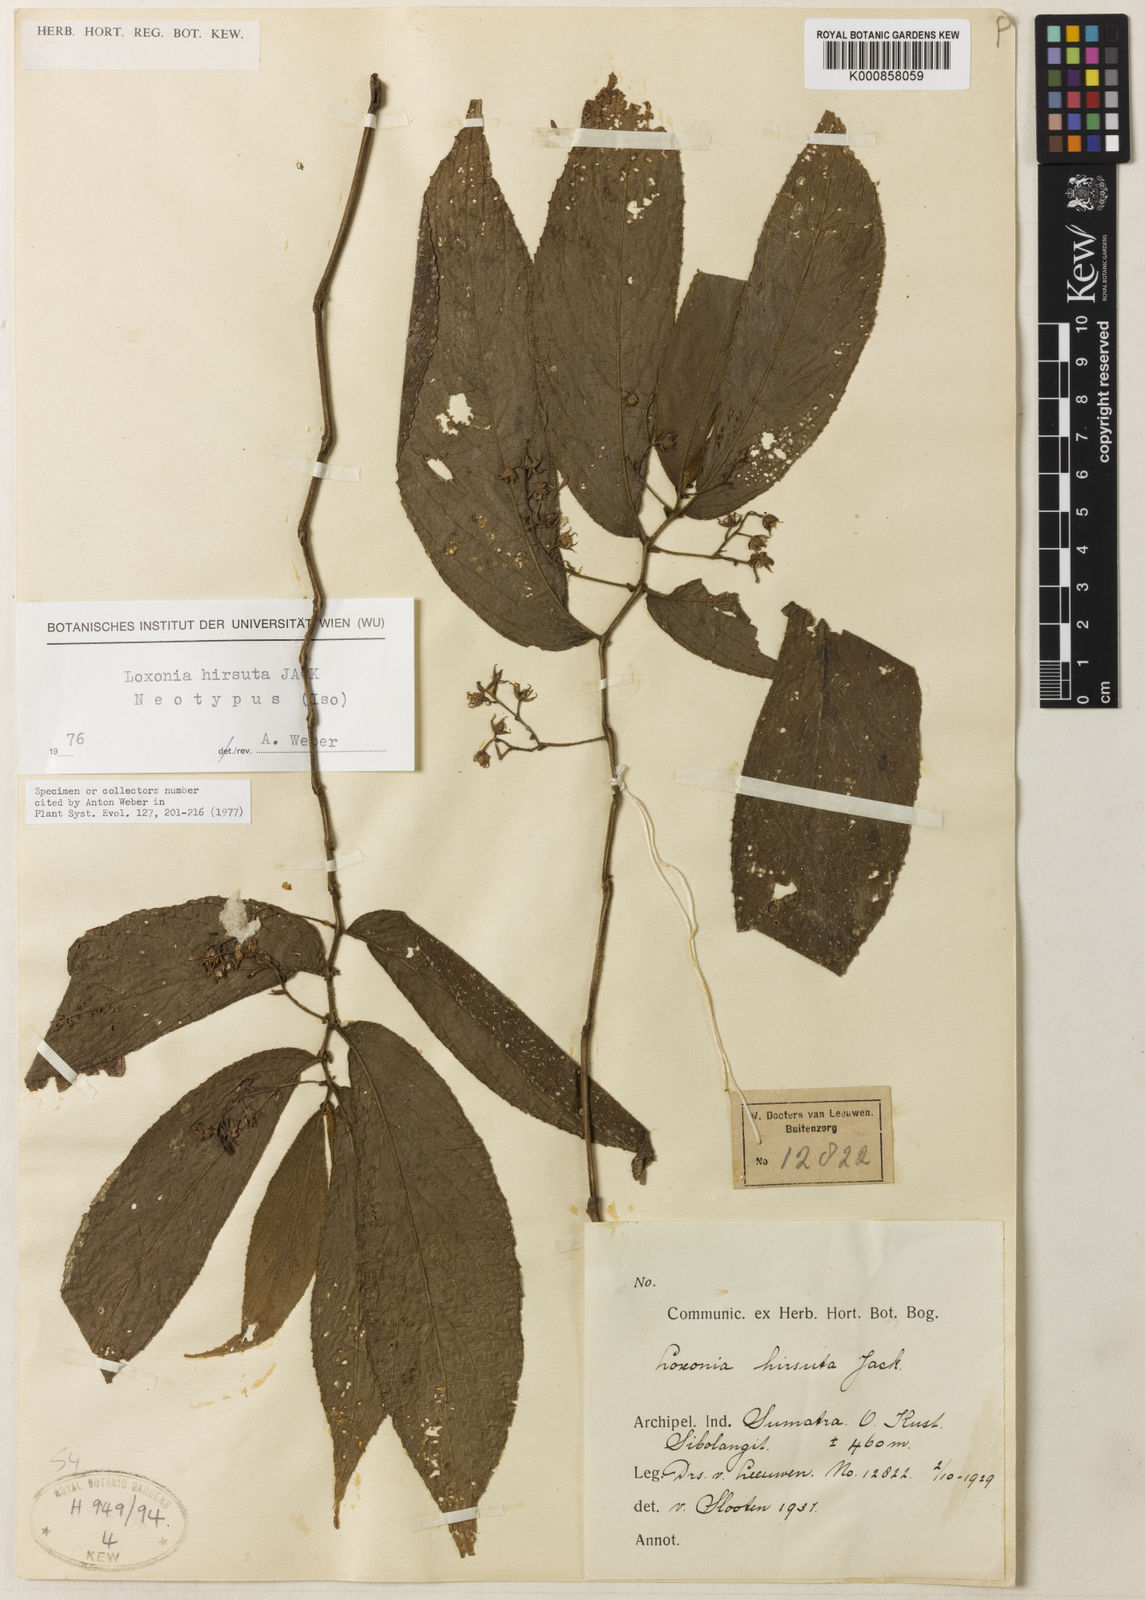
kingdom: Plantae
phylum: Tracheophyta
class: Magnoliopsida
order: Lamiales
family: Gesneriaceae
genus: Loxonia
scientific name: Loxonia hirsuta
